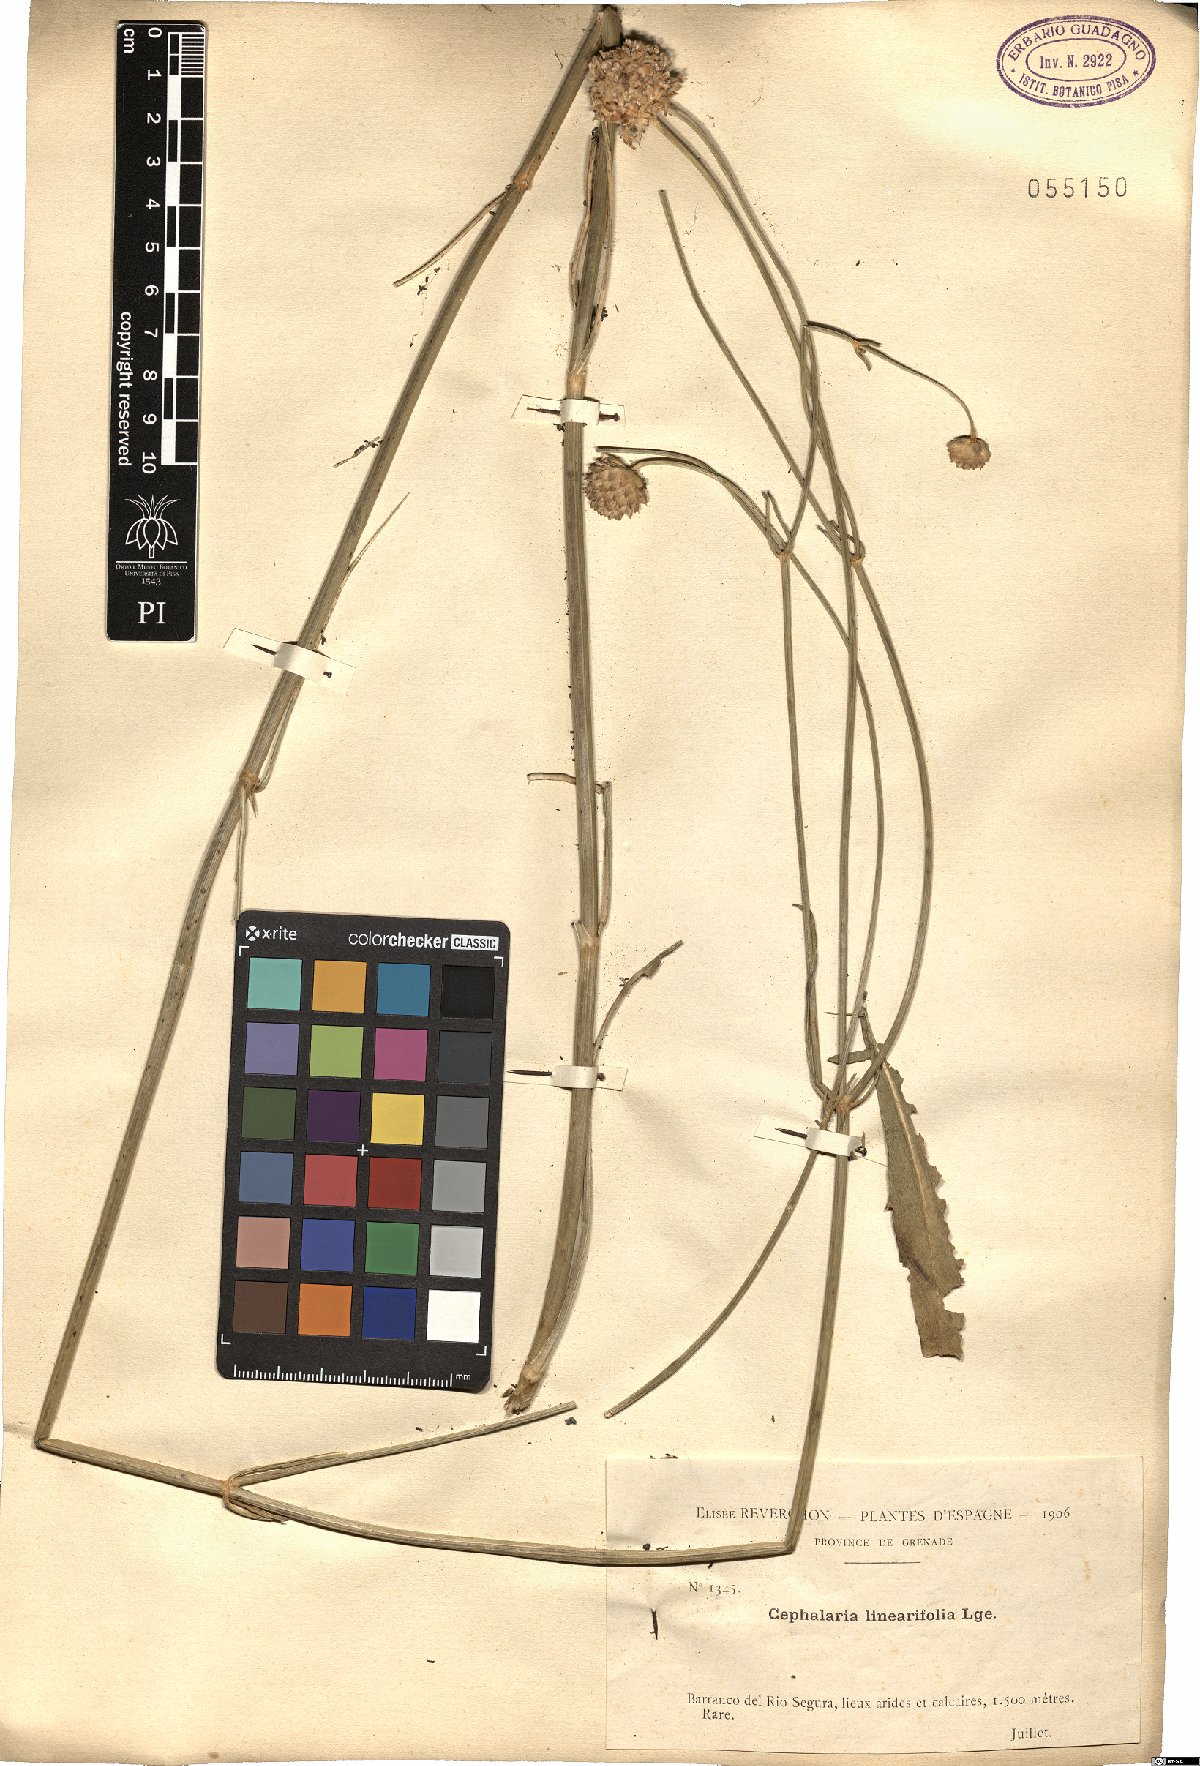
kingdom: Plantae
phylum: Tracheophyta
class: Magnoliopsida
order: Dipsacales
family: Caprifoliaceae
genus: Cephalaria
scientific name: Cephalaria linearifolia
